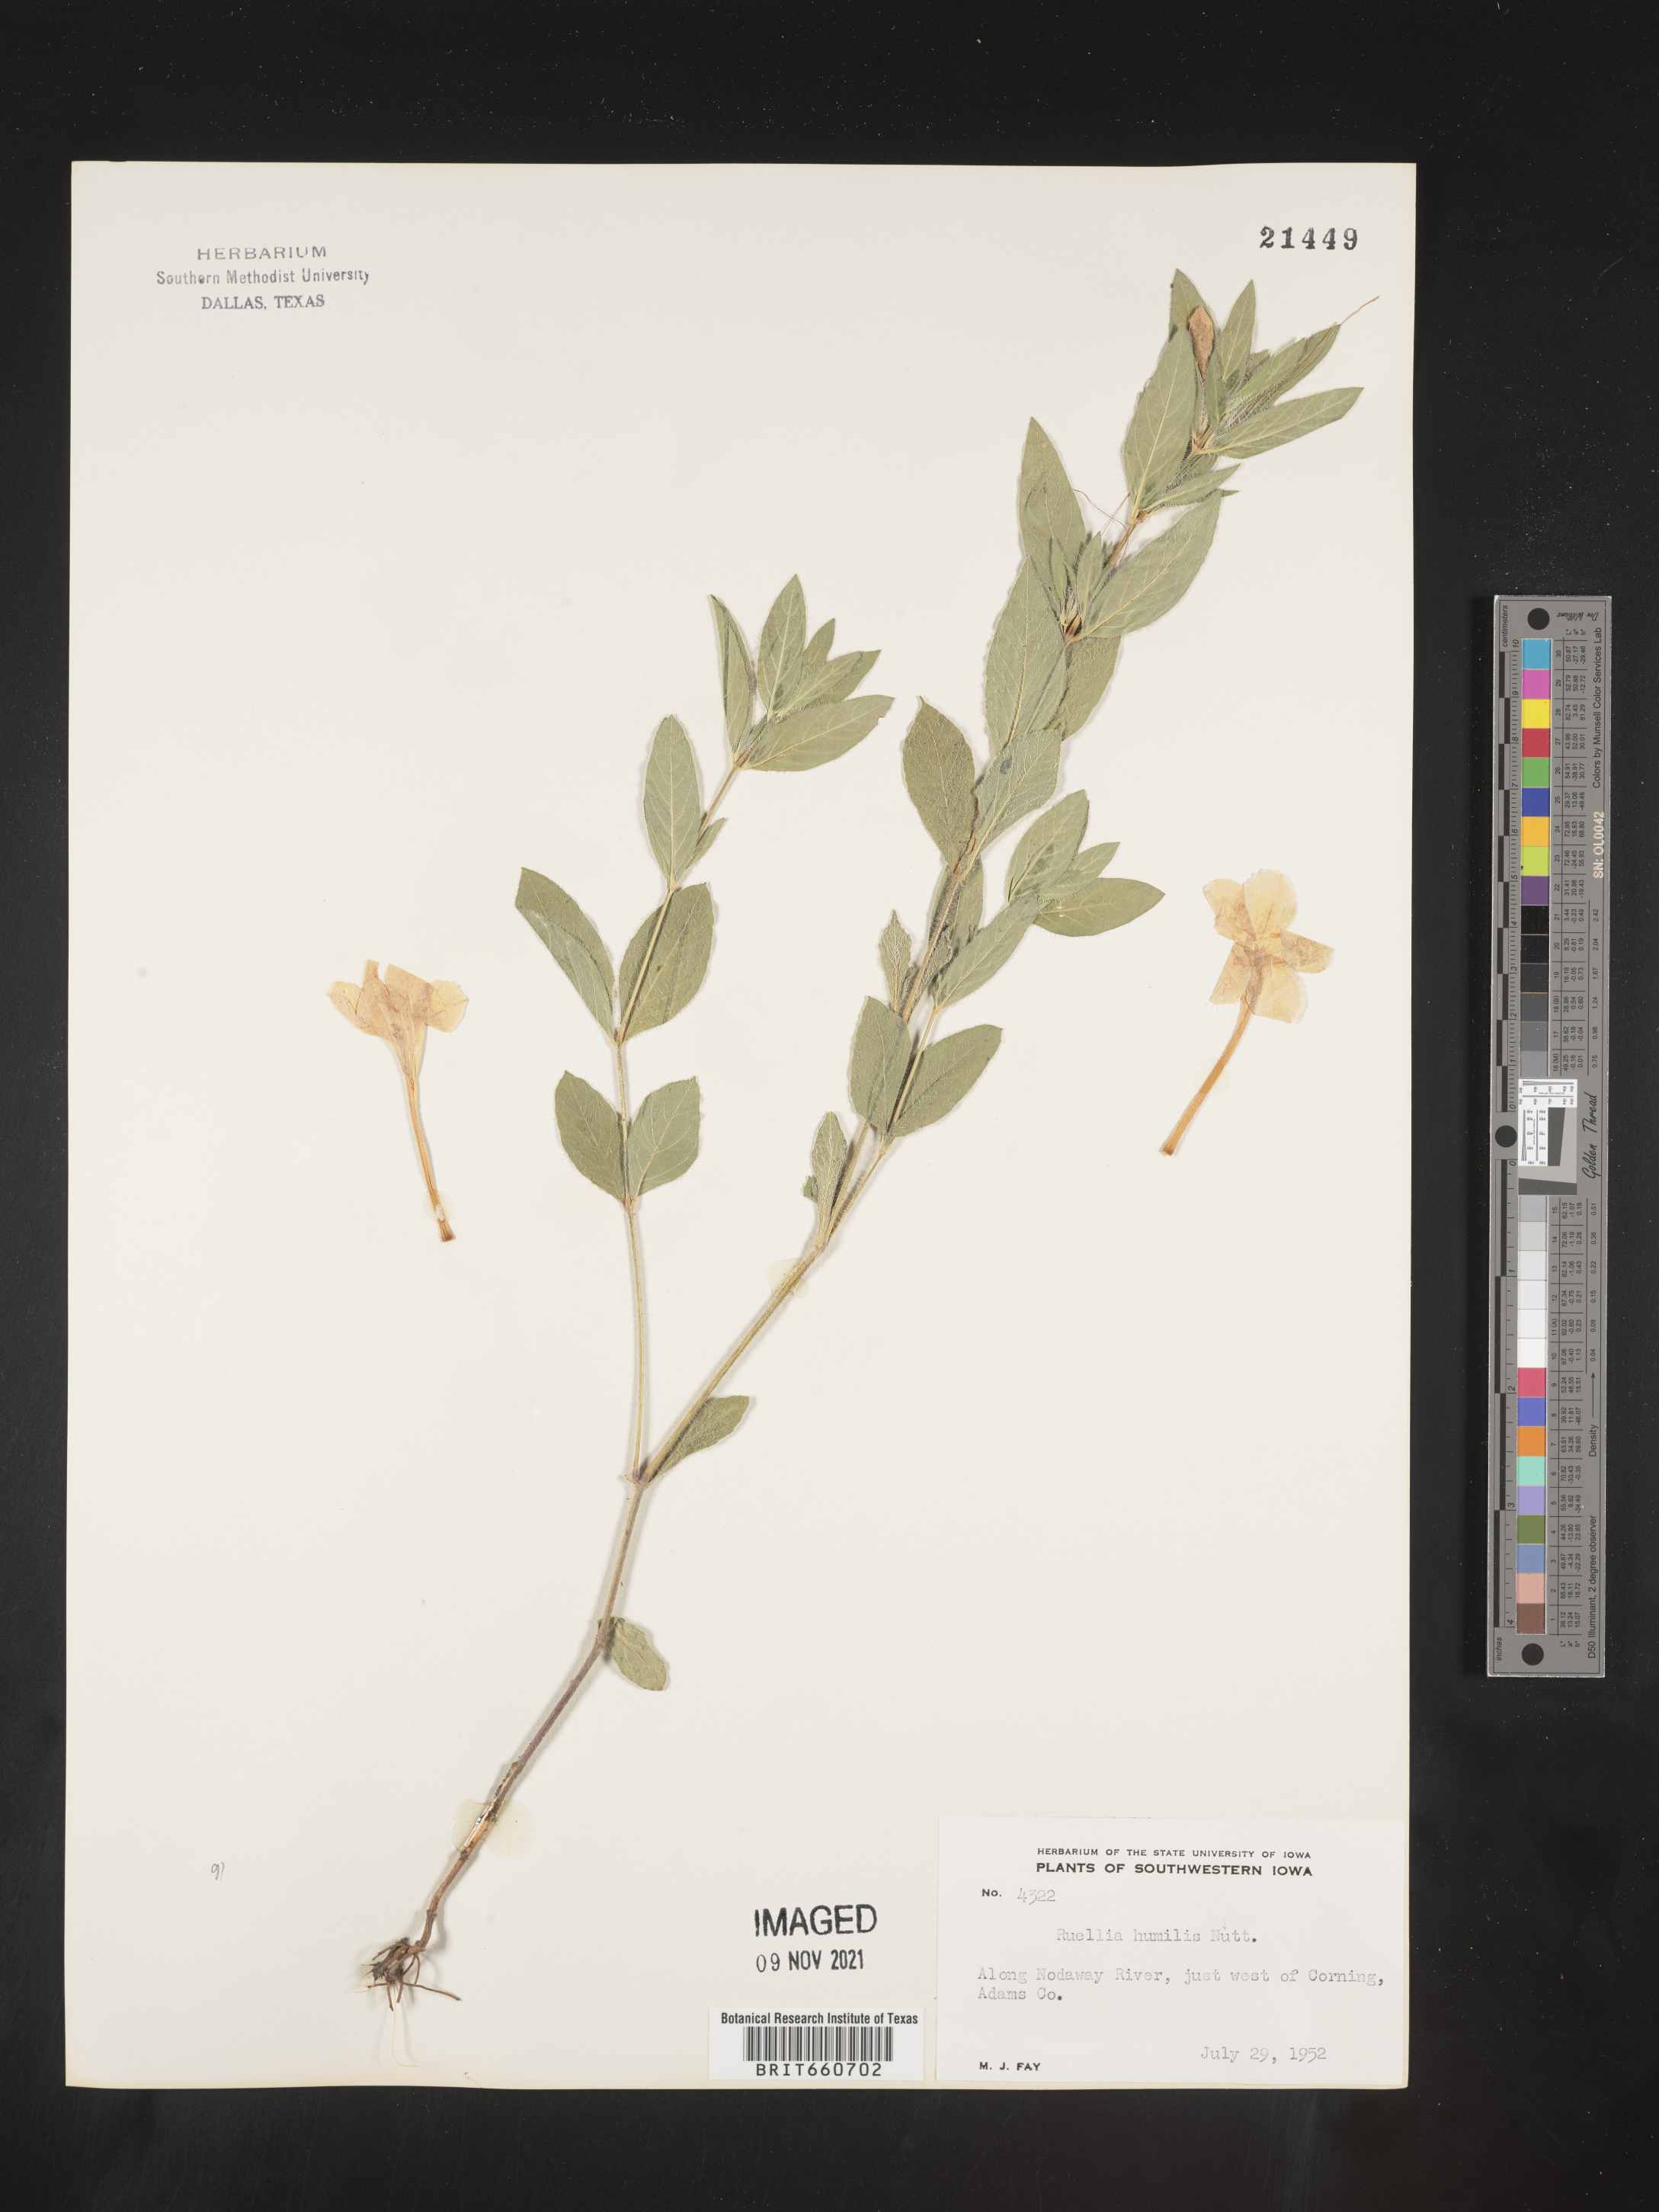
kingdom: Plantae
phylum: Tracheophyta
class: Magnoliopsida
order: Lamiales
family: Acanthaceae
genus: Ruellia
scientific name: Ruellia humilis
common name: Fringe-leaf ruellia
